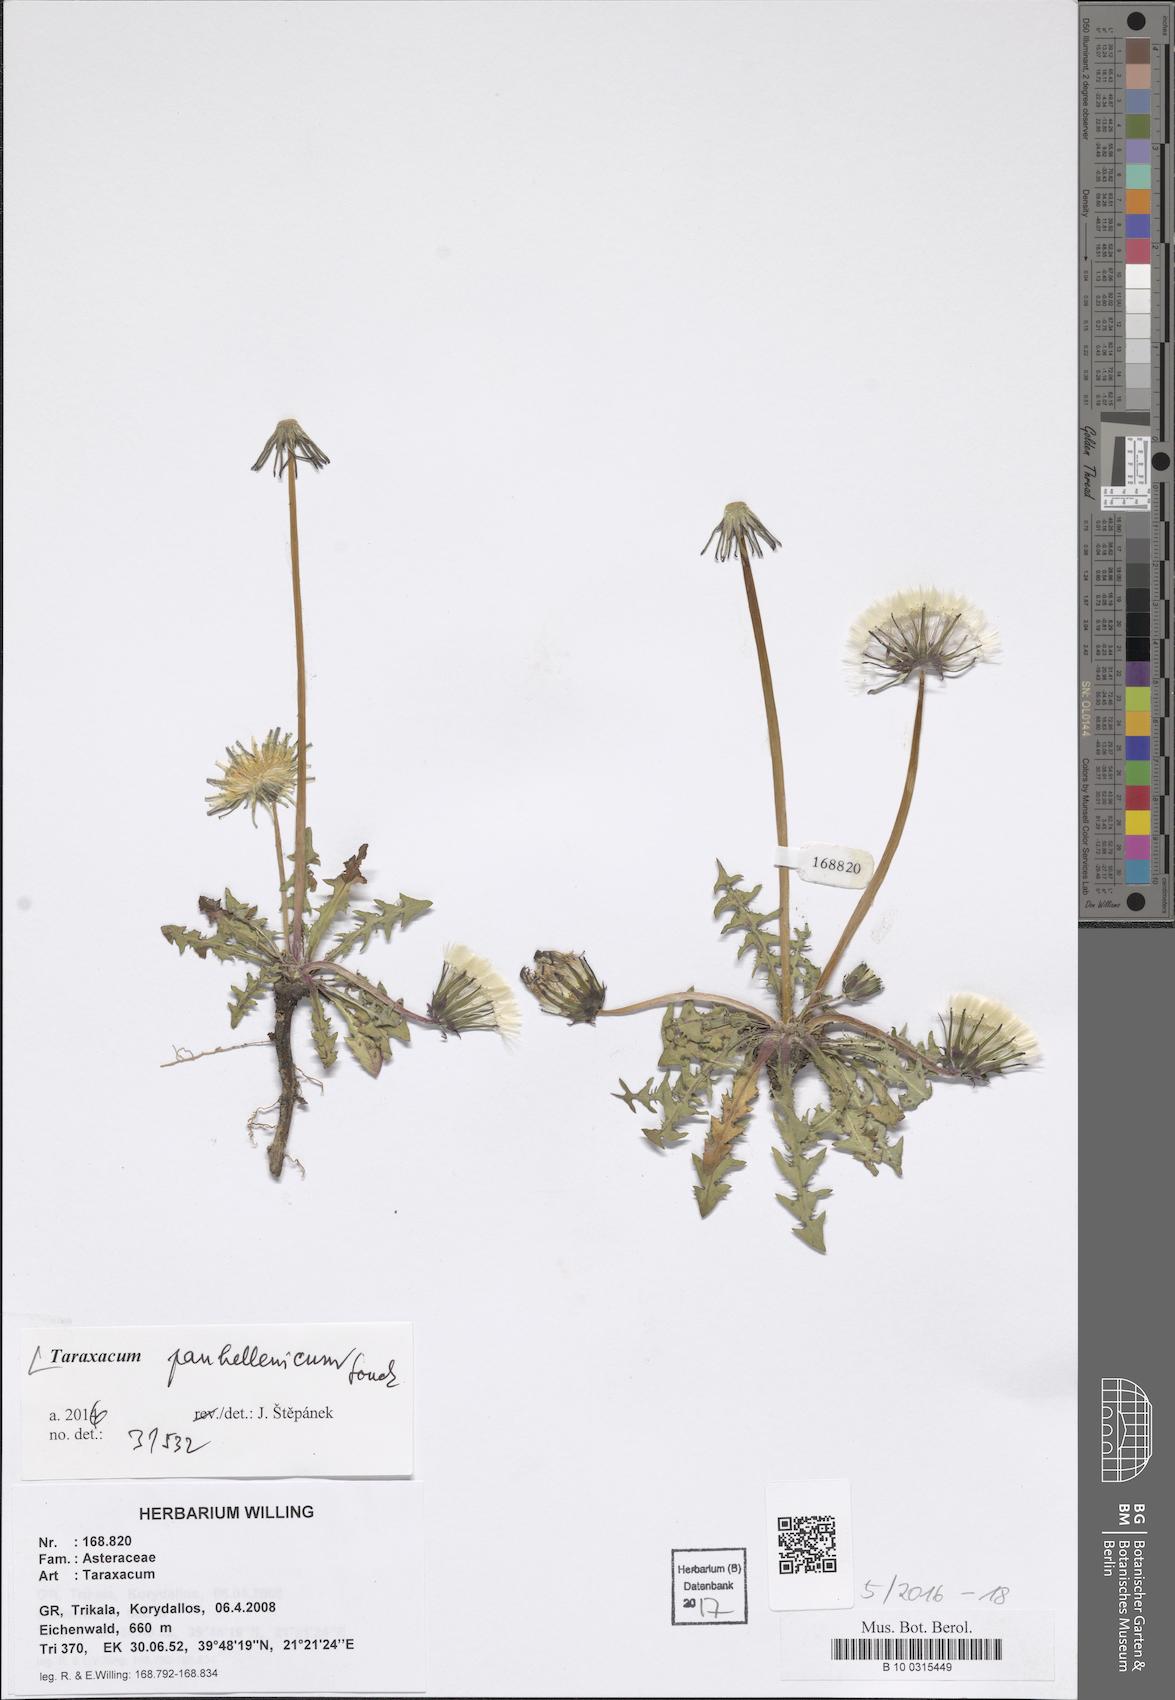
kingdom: Plantae
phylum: Tracheophyta
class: Magnoliopsida
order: Asterales
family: Asteraceae
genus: Taraxacum
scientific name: Taraxacum panhellenicum
